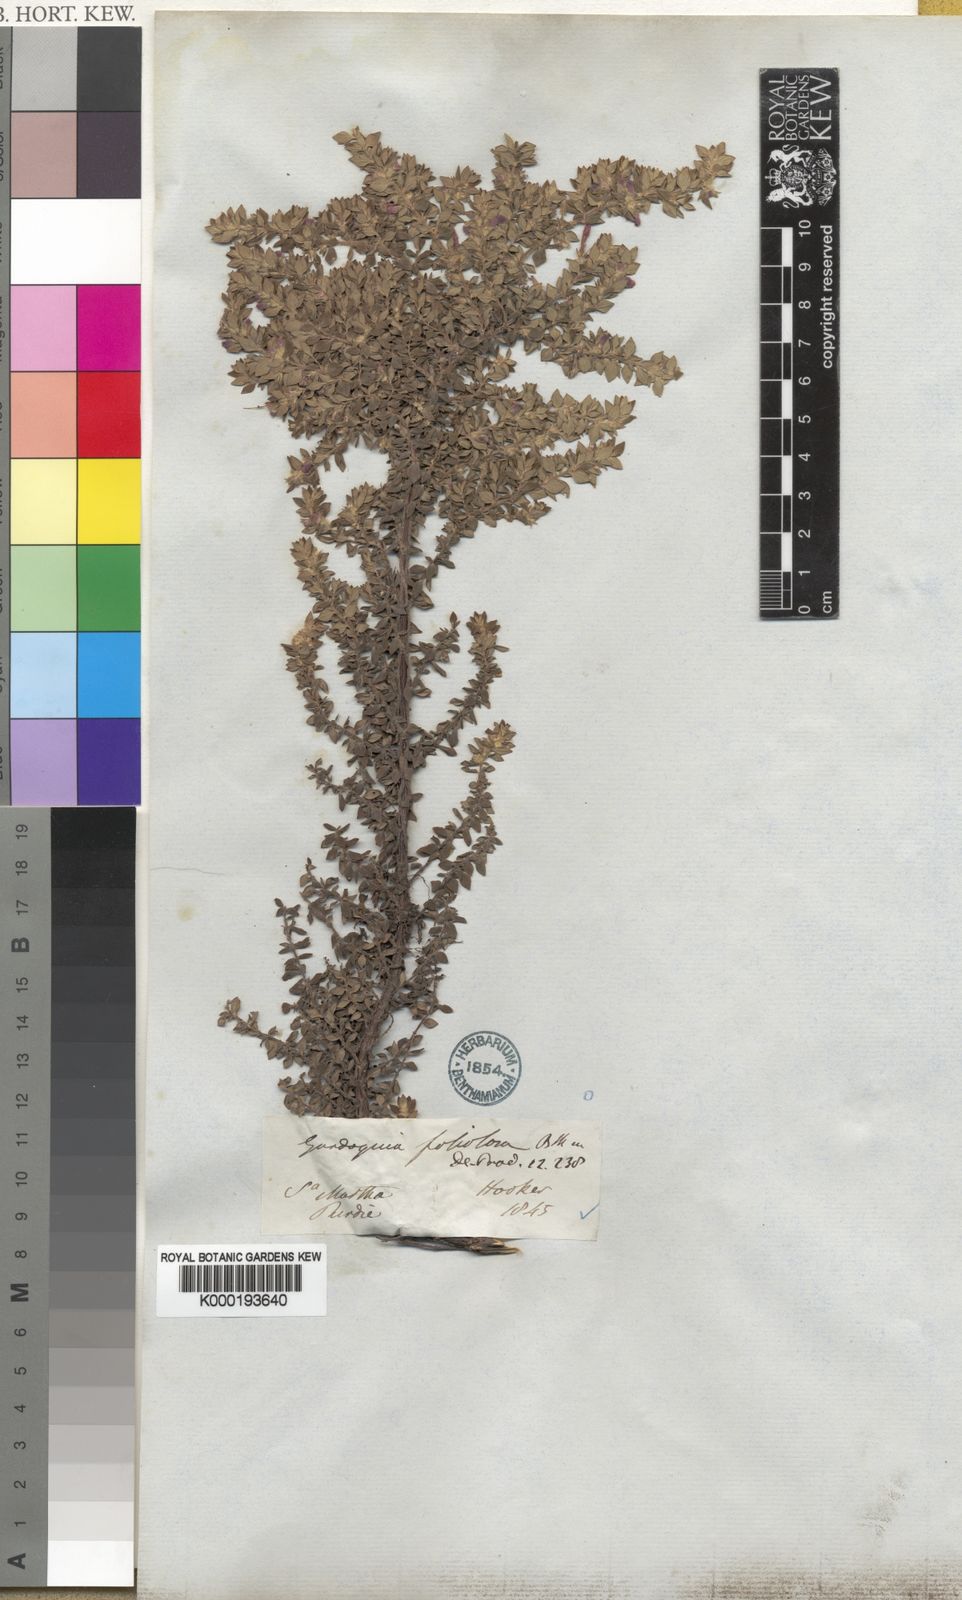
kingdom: Plantae
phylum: Tracheophyta
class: Magnoliopsida
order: Lamiales
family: Lamiaceae
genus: Clinopodium
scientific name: Clinopodium foliolosum
